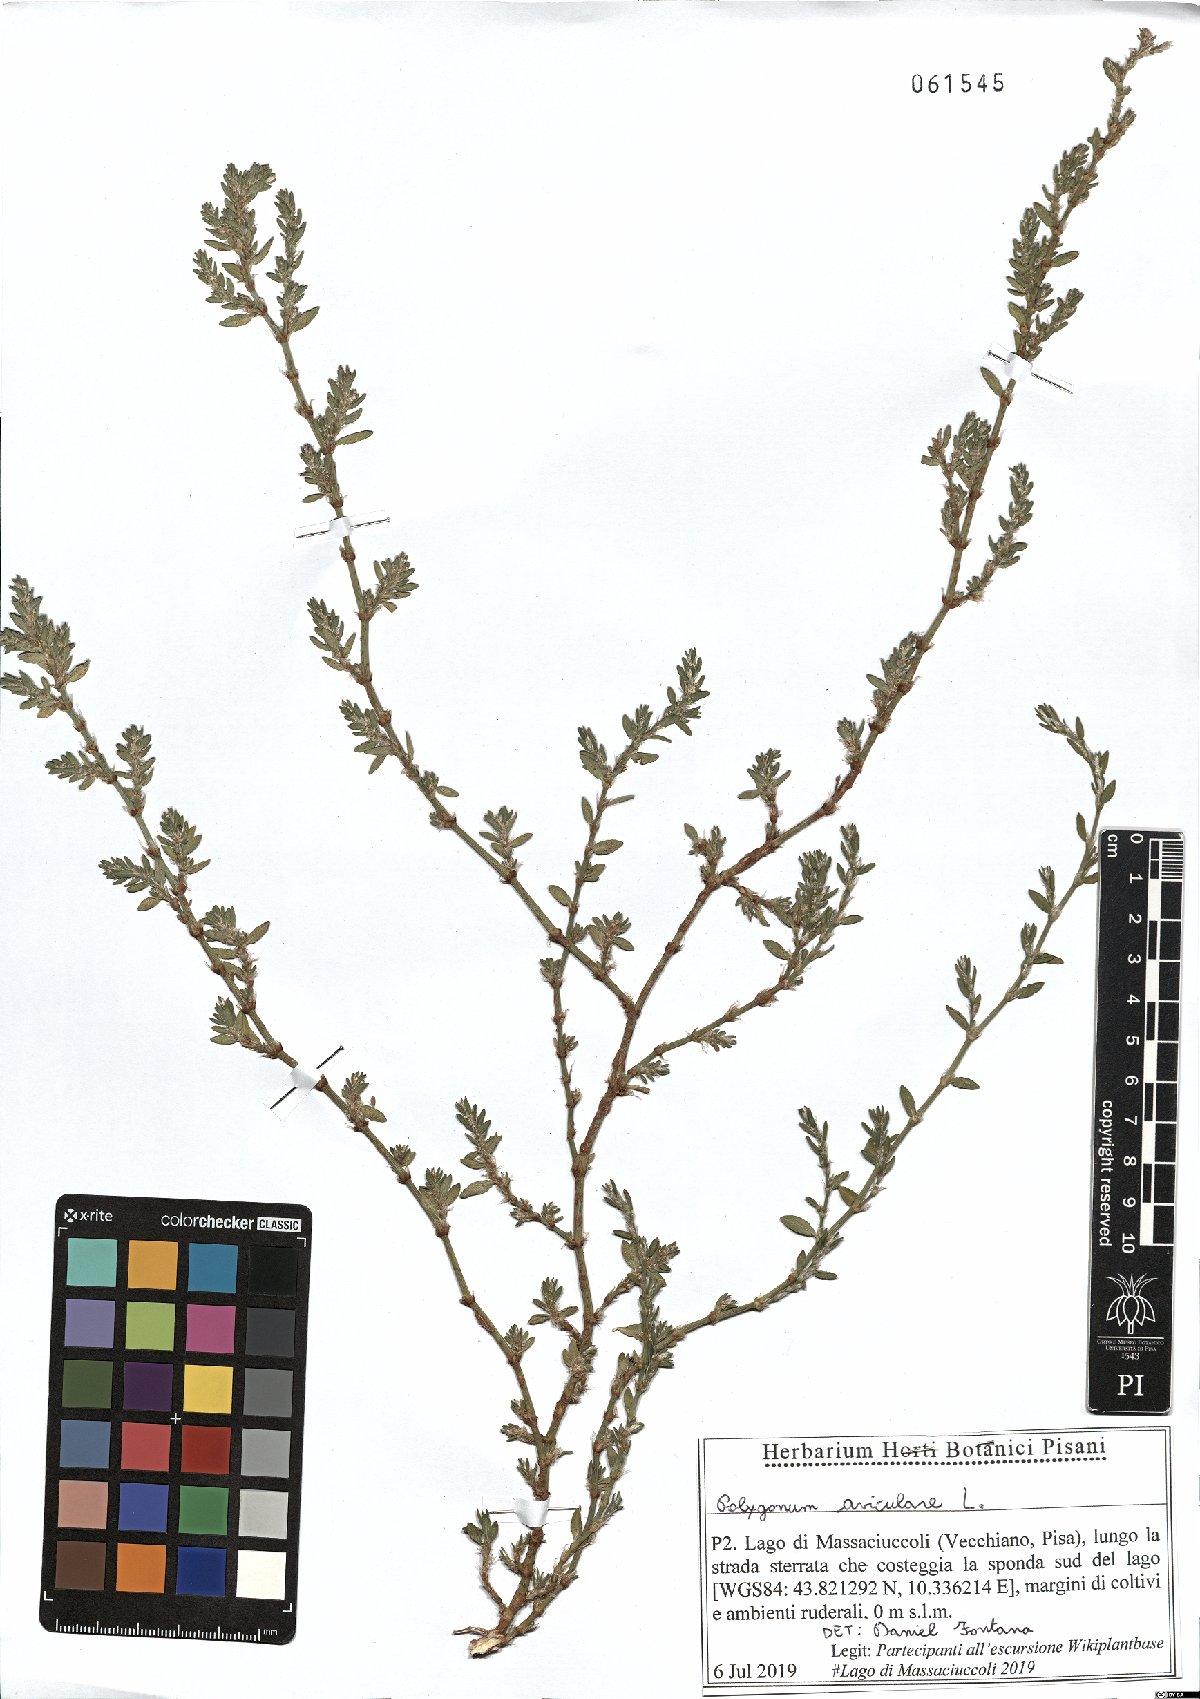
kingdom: Plantae
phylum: Tracheophyta
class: Magnoliopsida
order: Caryophyllales
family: Polygonaceae
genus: Polygonum
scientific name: Polygonum aviculare
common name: Prostrate knotweed
